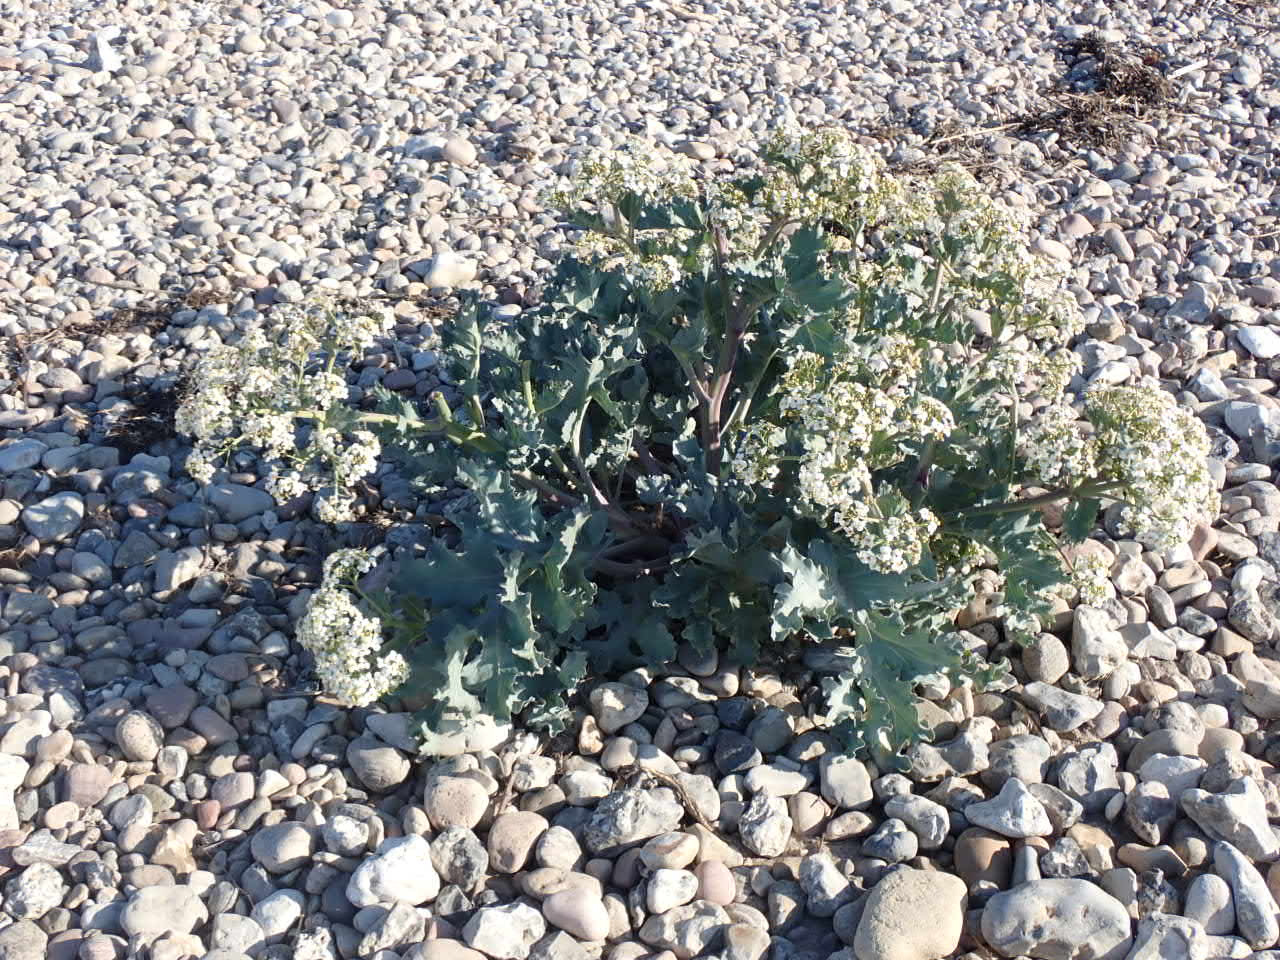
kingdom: Plantae
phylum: Tracheophyta
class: Magnoliopsida
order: Brassicales
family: Brassicaceae
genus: Crambe
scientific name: Crambe maritima
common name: Strandkål
